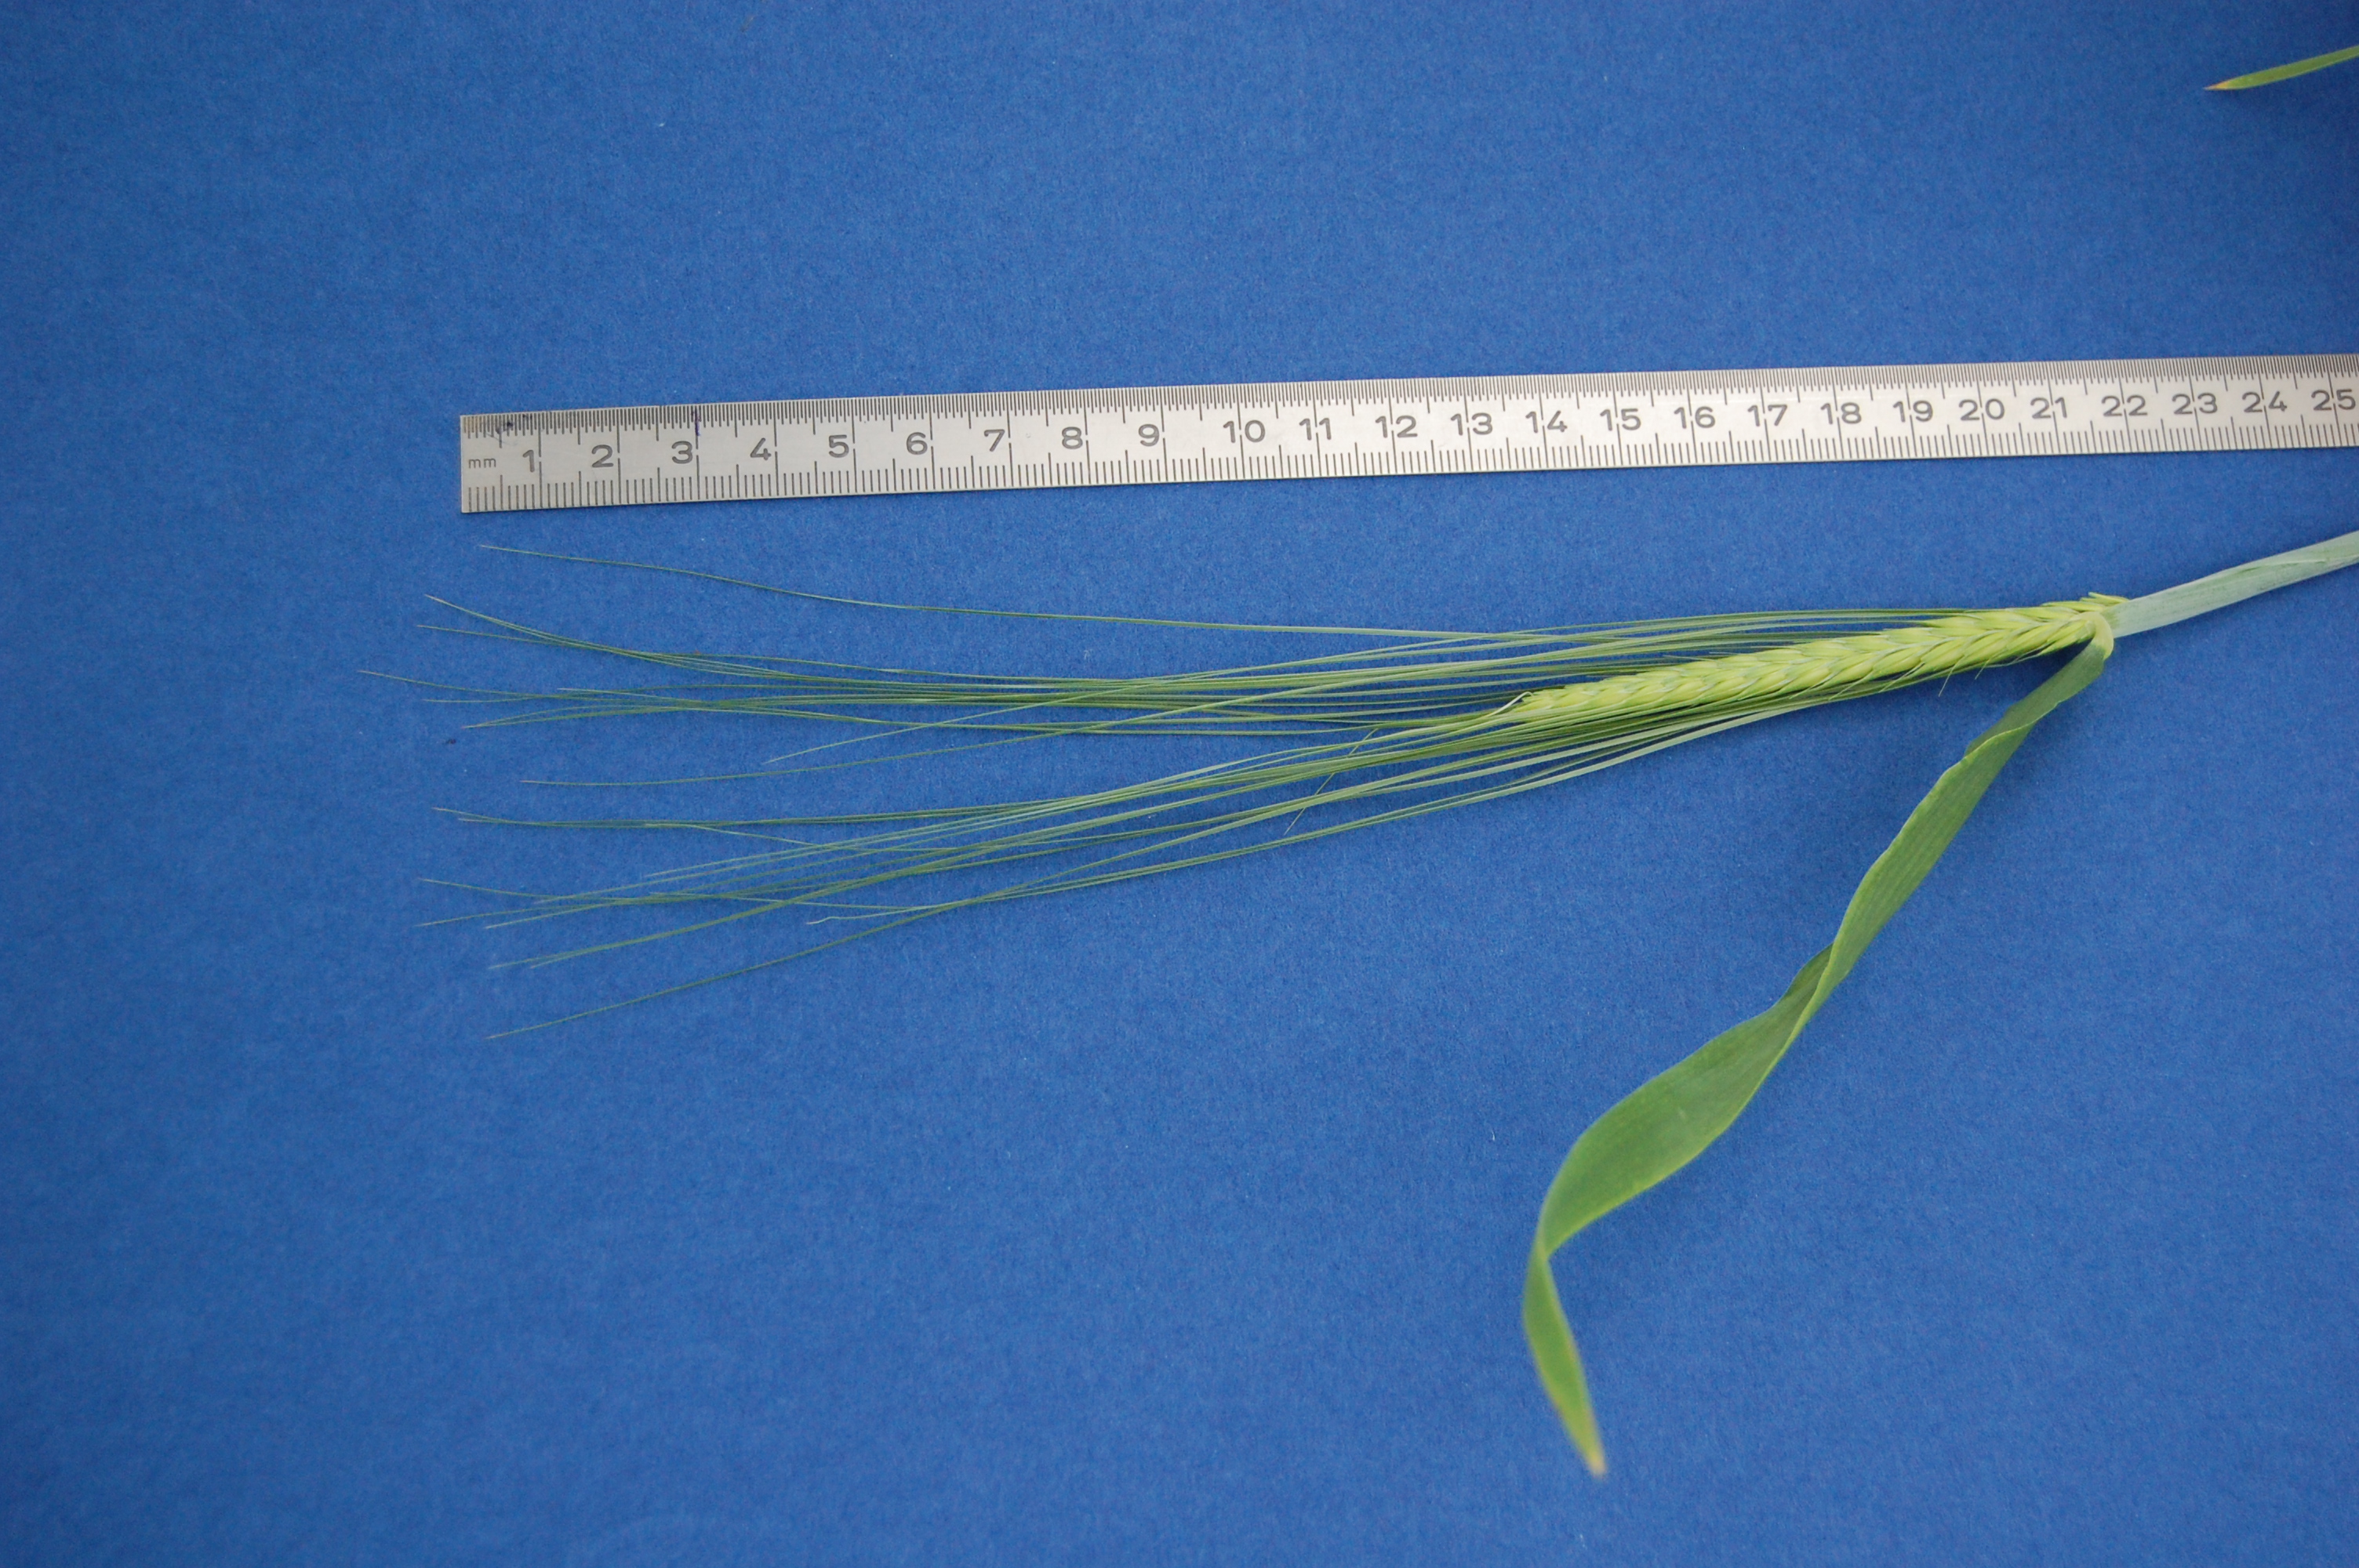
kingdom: Plantae
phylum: Tracheophyta
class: Liliopsida
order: Poales
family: Poaceae
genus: Hordeum
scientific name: Hordeum vulgare
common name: Common barley
